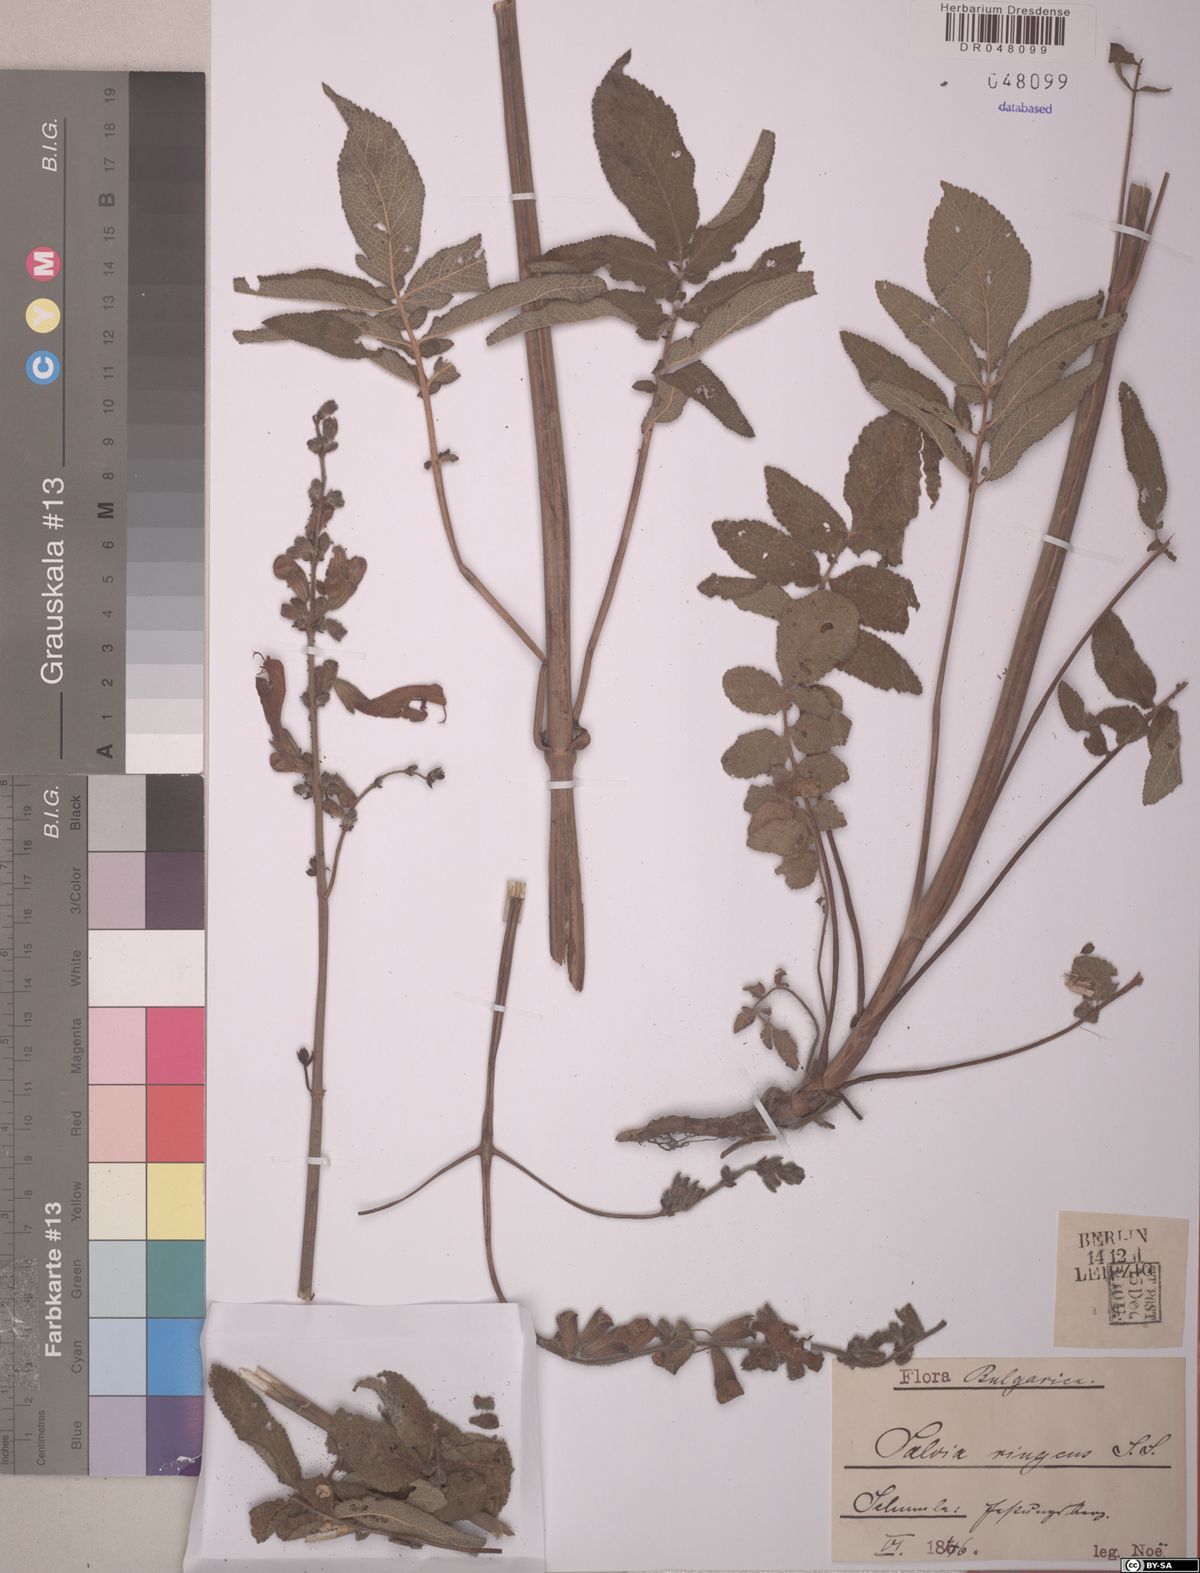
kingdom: Plantae
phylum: Tracheophyta
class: Magnoliopsida
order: Lamiales
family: Lamiaceae
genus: Salvia
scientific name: Salvia ringens
